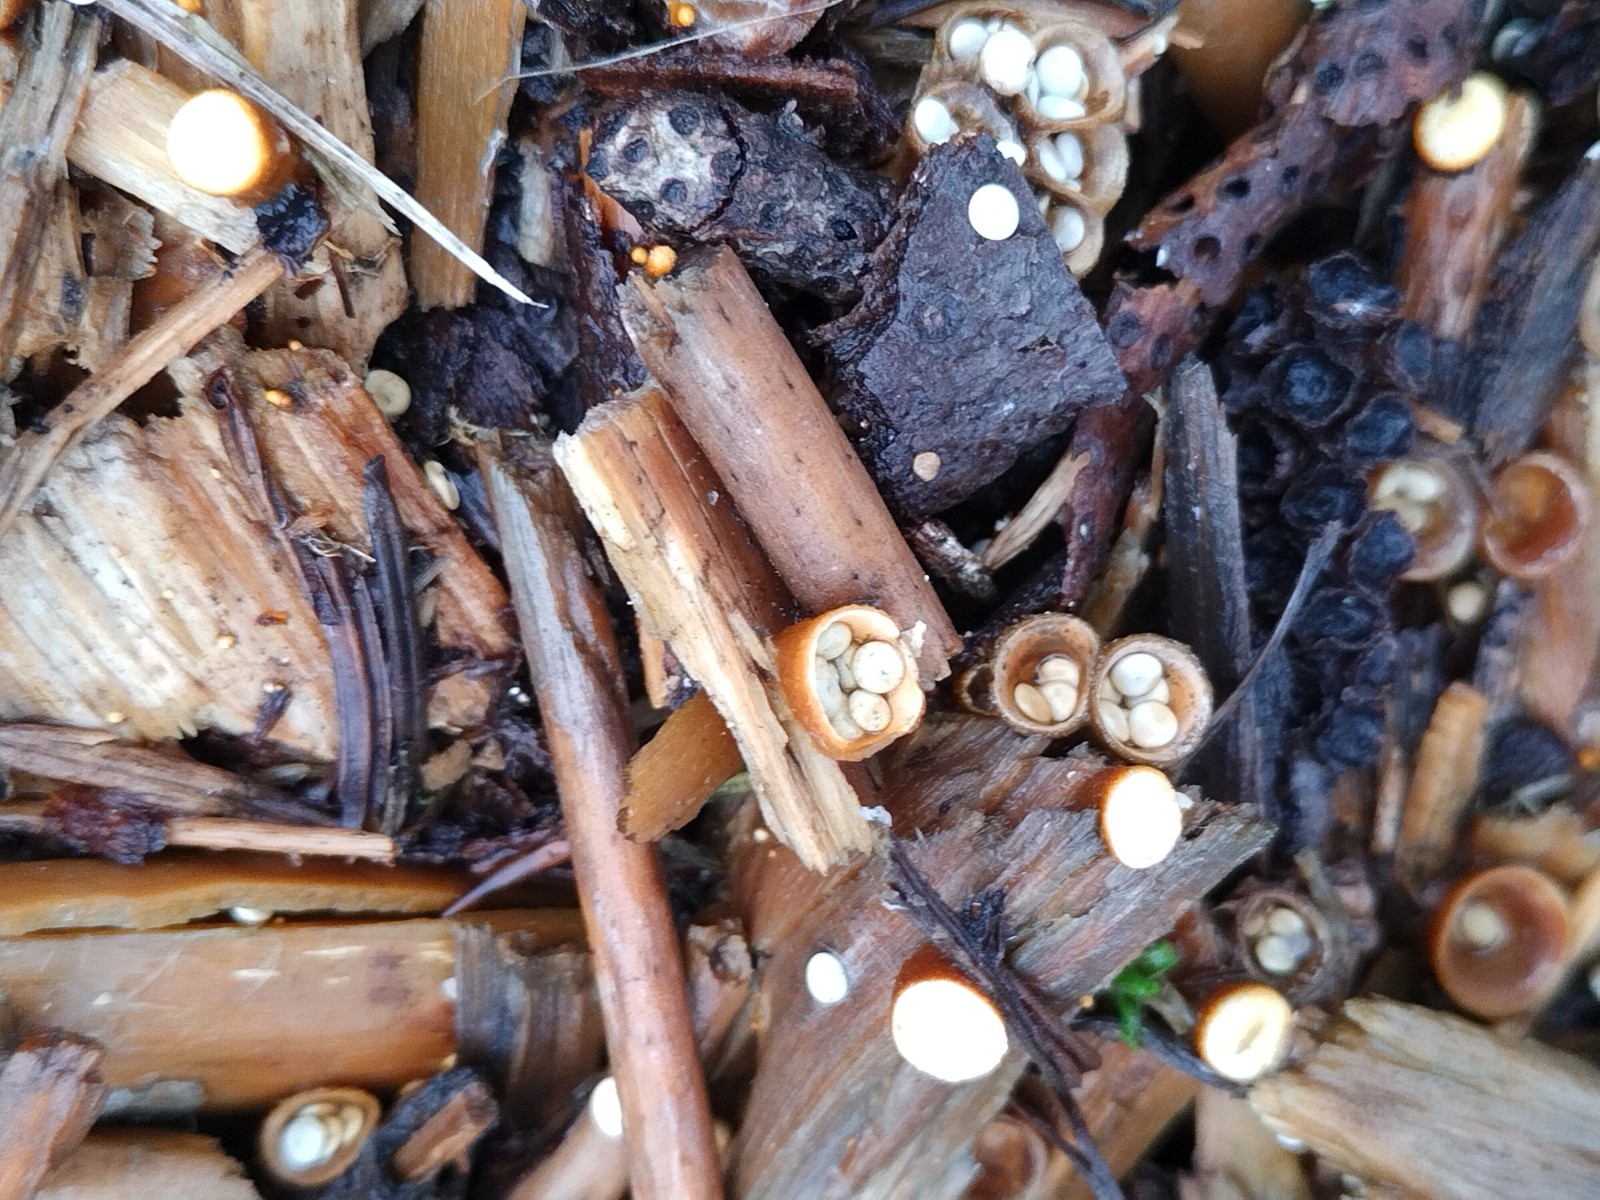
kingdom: Fungi
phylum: Basidiomycota
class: Agaricomycetes
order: Agaricales
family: Nidulariaceae
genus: Crucibulum
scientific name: Crucibulum crucibuliforme
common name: krukkesvamp
